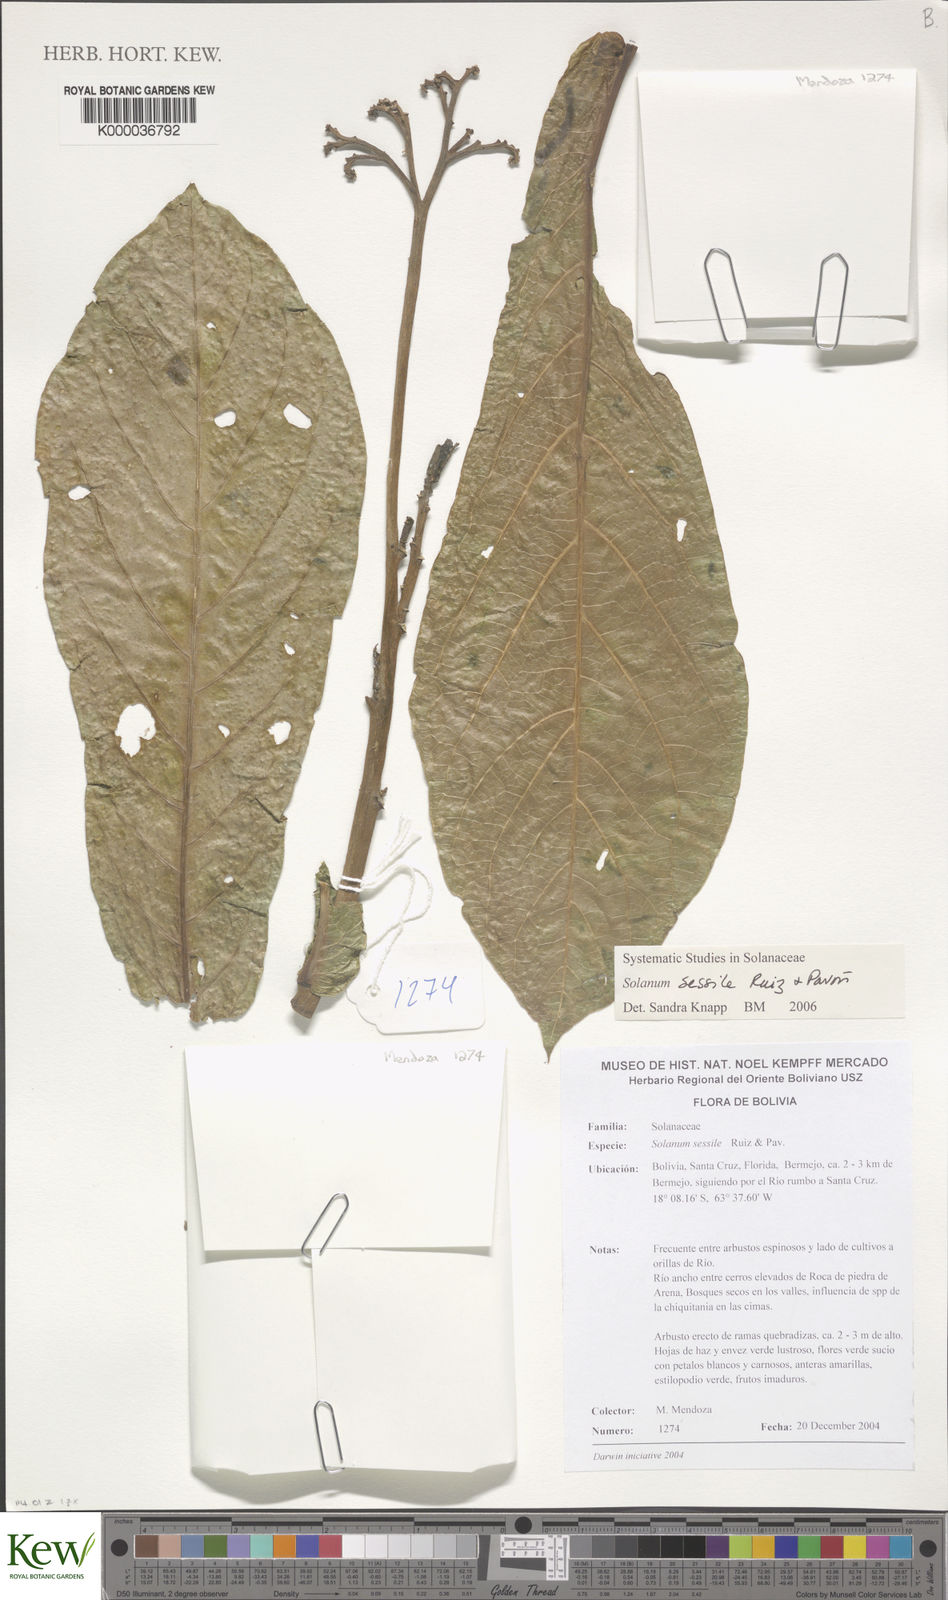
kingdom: Plantae
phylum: Tracheophyta
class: Magnoliopsida
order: Solanales
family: Solanaceae
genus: Solanum
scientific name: Solanum sessile
